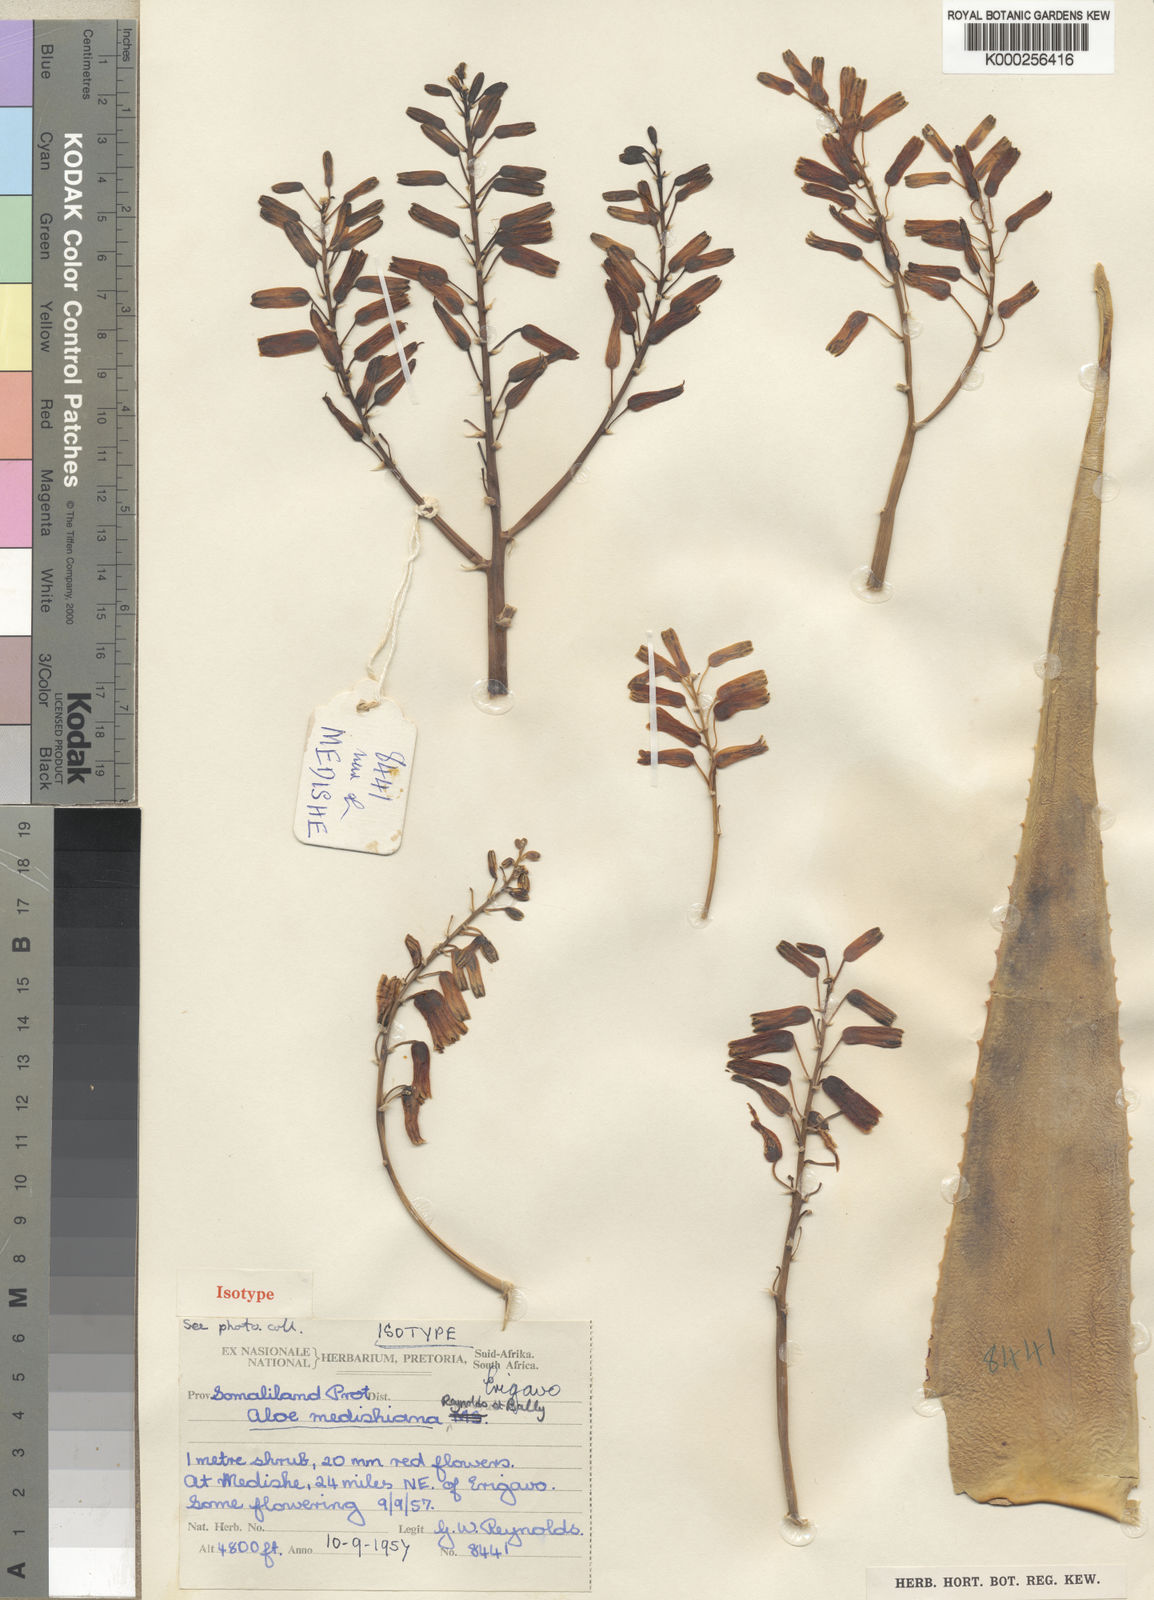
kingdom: Plantae
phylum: Tracheophyta
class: Liliopsida
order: Asparagales
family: Asphodelaceae
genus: Aloe
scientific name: Aloe medishiana
